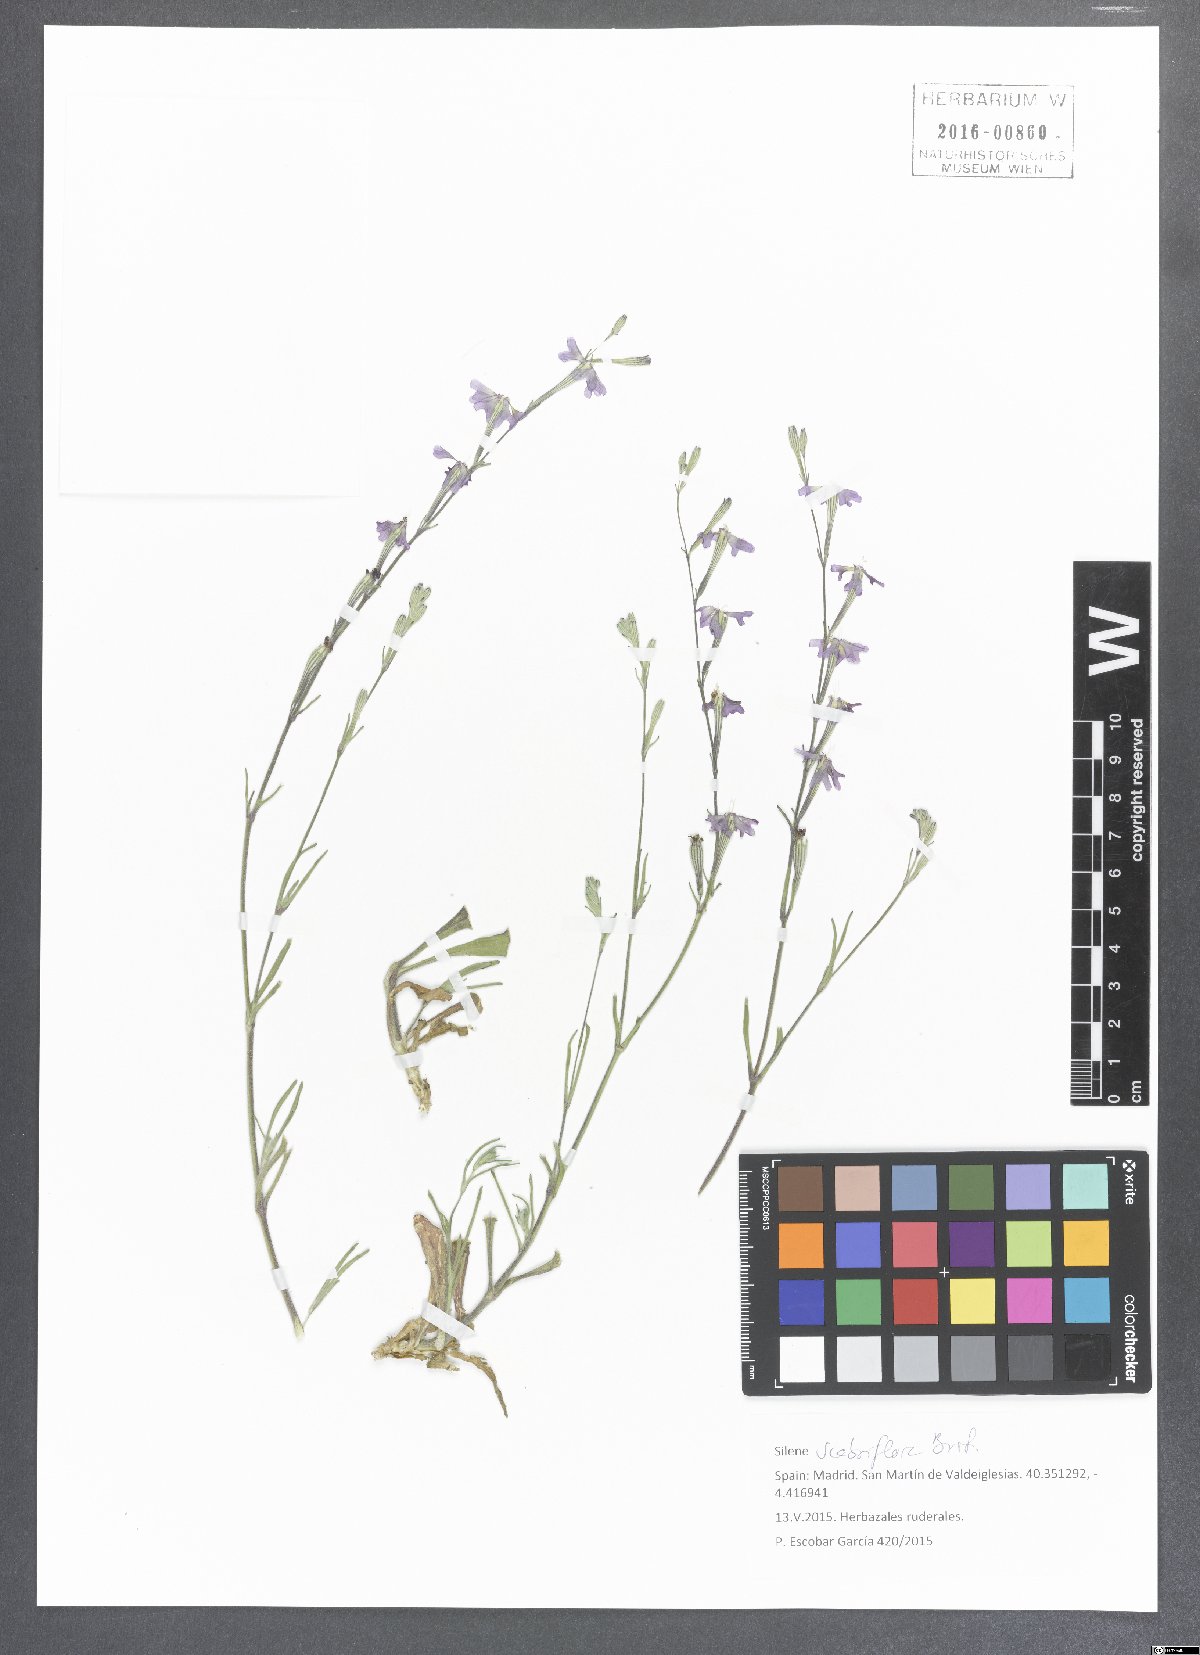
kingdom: Plantae
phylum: Tracheophyta
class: Magnoliopsida
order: Caryophyllales
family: Caryophyllaceae
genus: Silene
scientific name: Silene scabriflora
